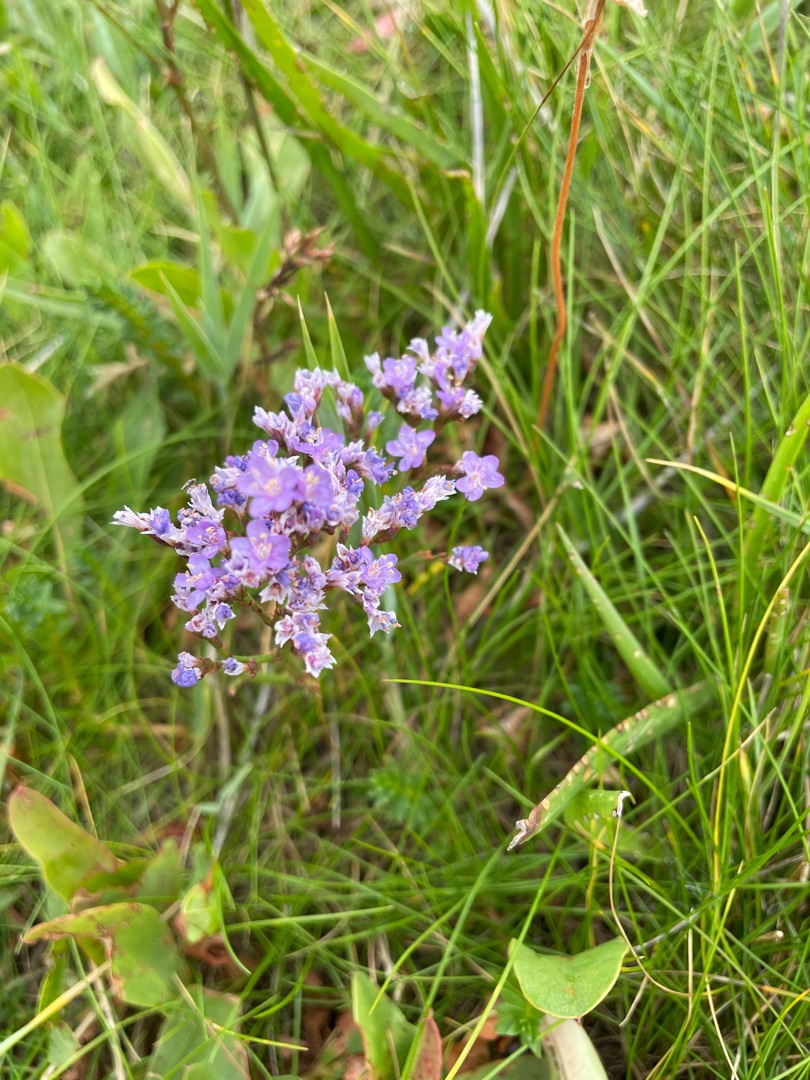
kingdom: Plantae
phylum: Tracheophyta
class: Magnoliopsida
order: Caryophyllales
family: Plumbaginaceae
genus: Limonium
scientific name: Limonium vulgare
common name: Tætblomstret hindebæger
